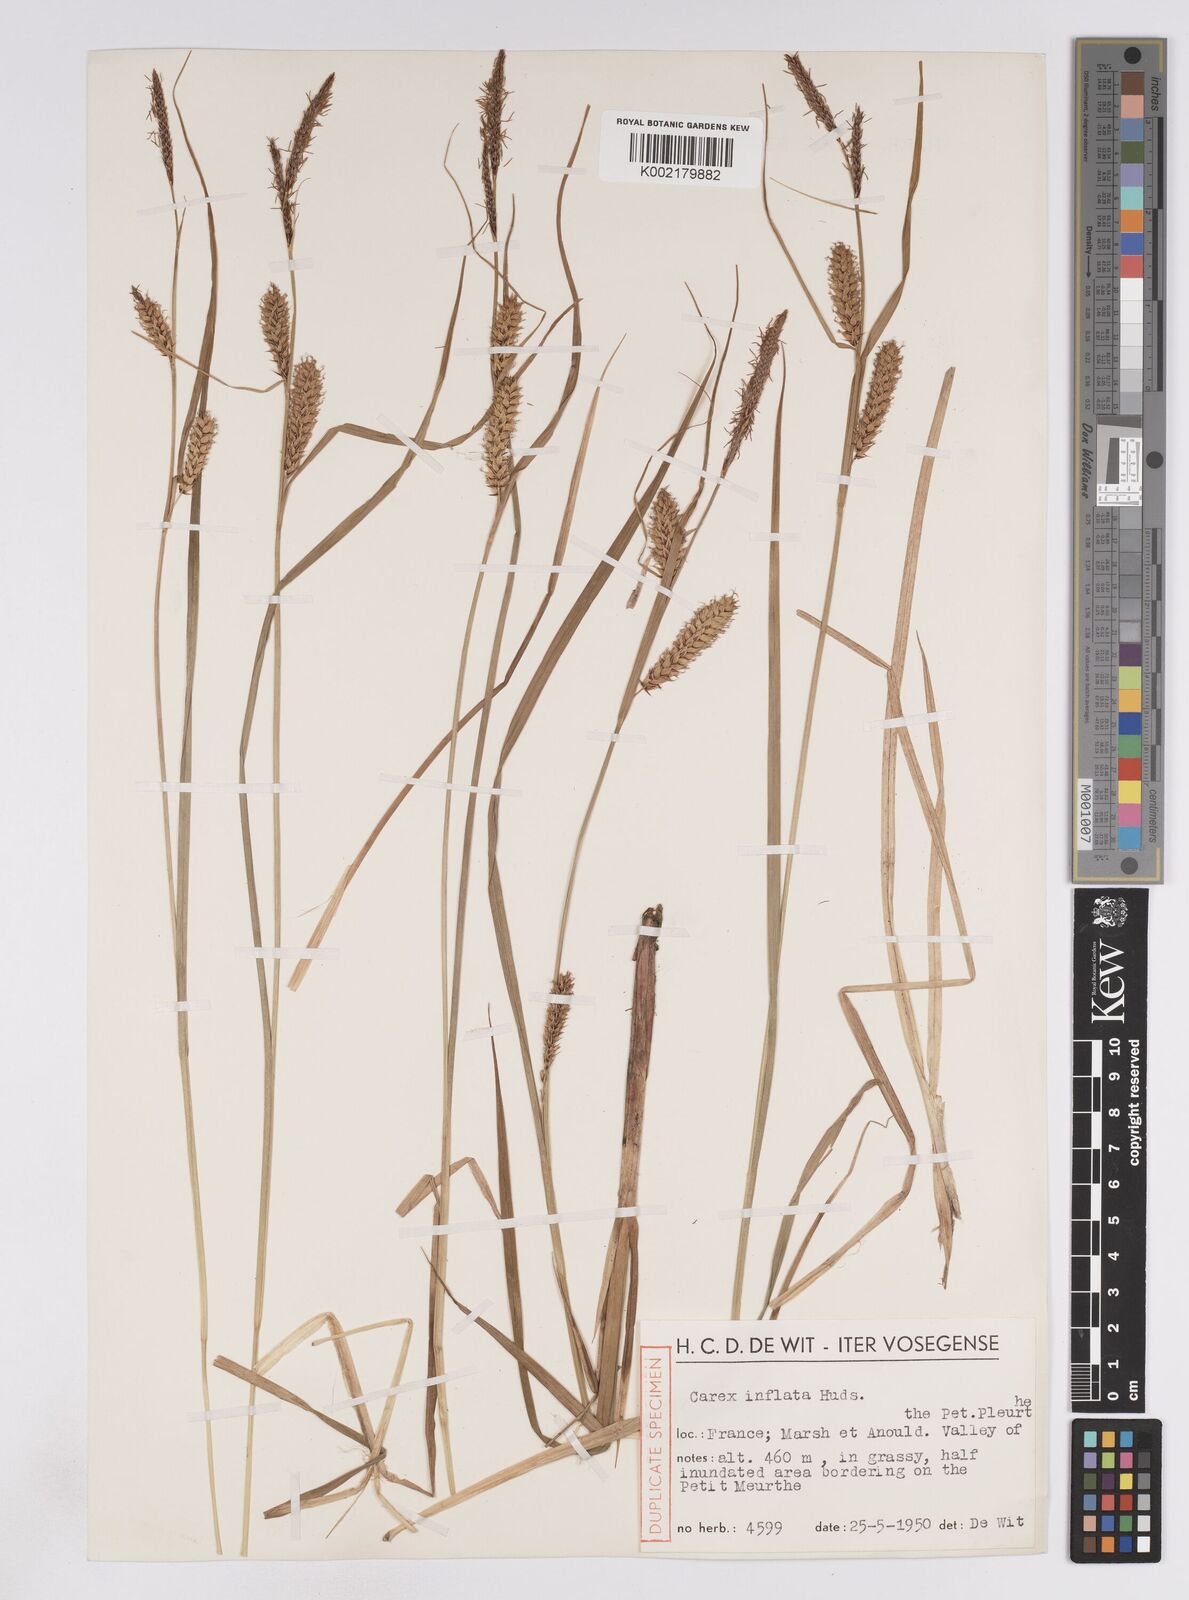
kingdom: Plantae
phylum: Tracheophyta
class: Liliopsida
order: Poales
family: Cyperaceae
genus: Carex
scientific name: Carex rostrata
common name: Bottle sedge
